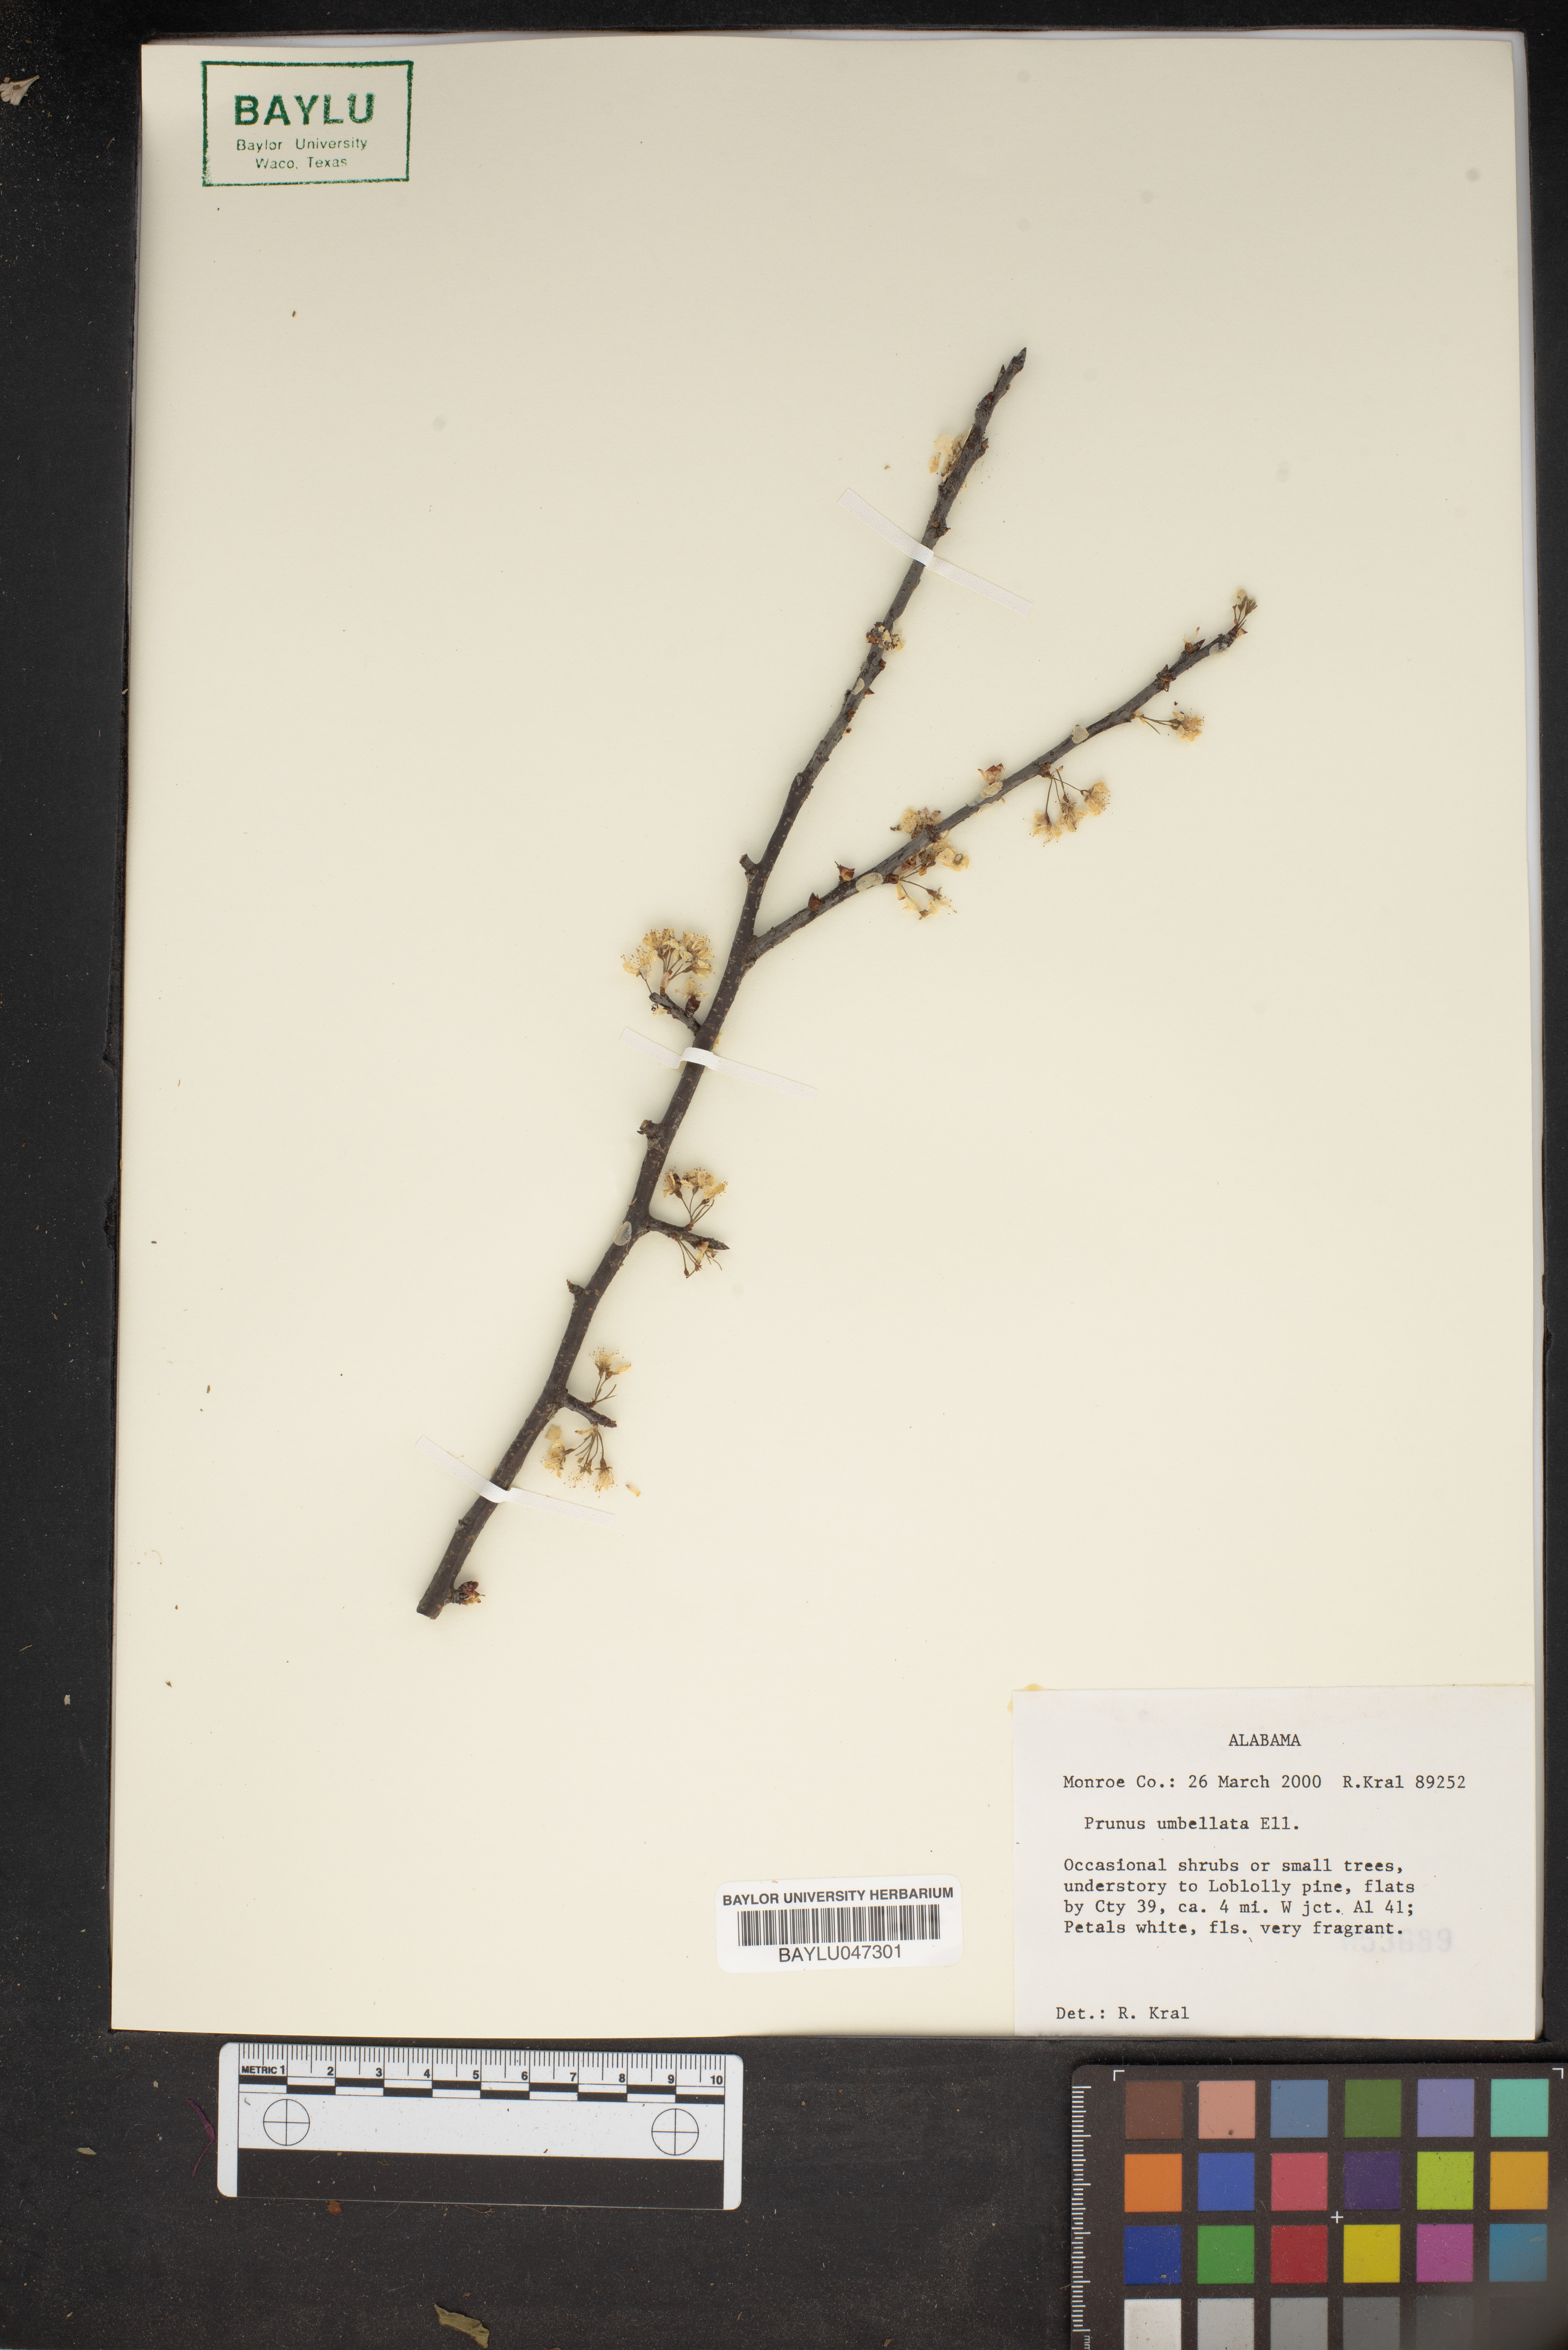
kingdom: Plantae
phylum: Tracheophyta
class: Magnoliopsida
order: Rosales
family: Rosaceae
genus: Prunus
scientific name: Prunus umbellata
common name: Allegheny plum
